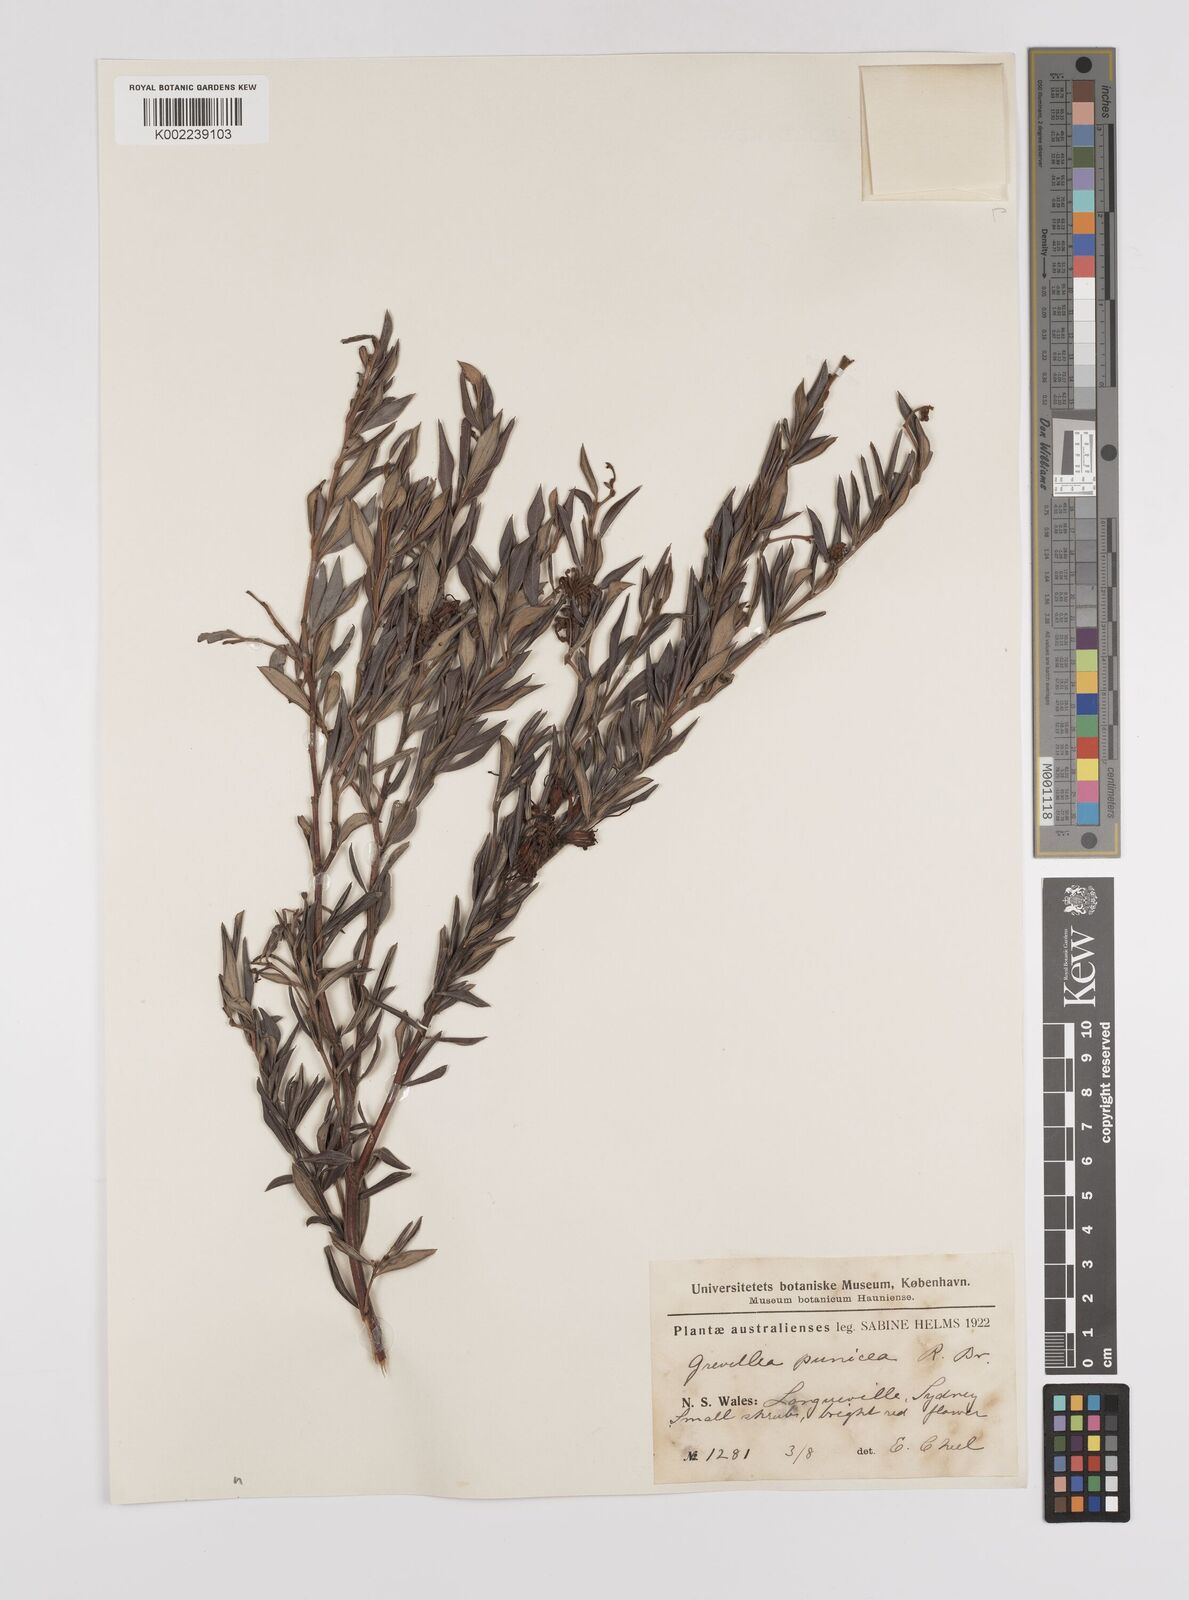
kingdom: Plantae
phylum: Tracheophyta
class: Magnoliopsida
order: Proteales
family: Proteaceae
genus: Grevillea
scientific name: Grevillea speciosa
